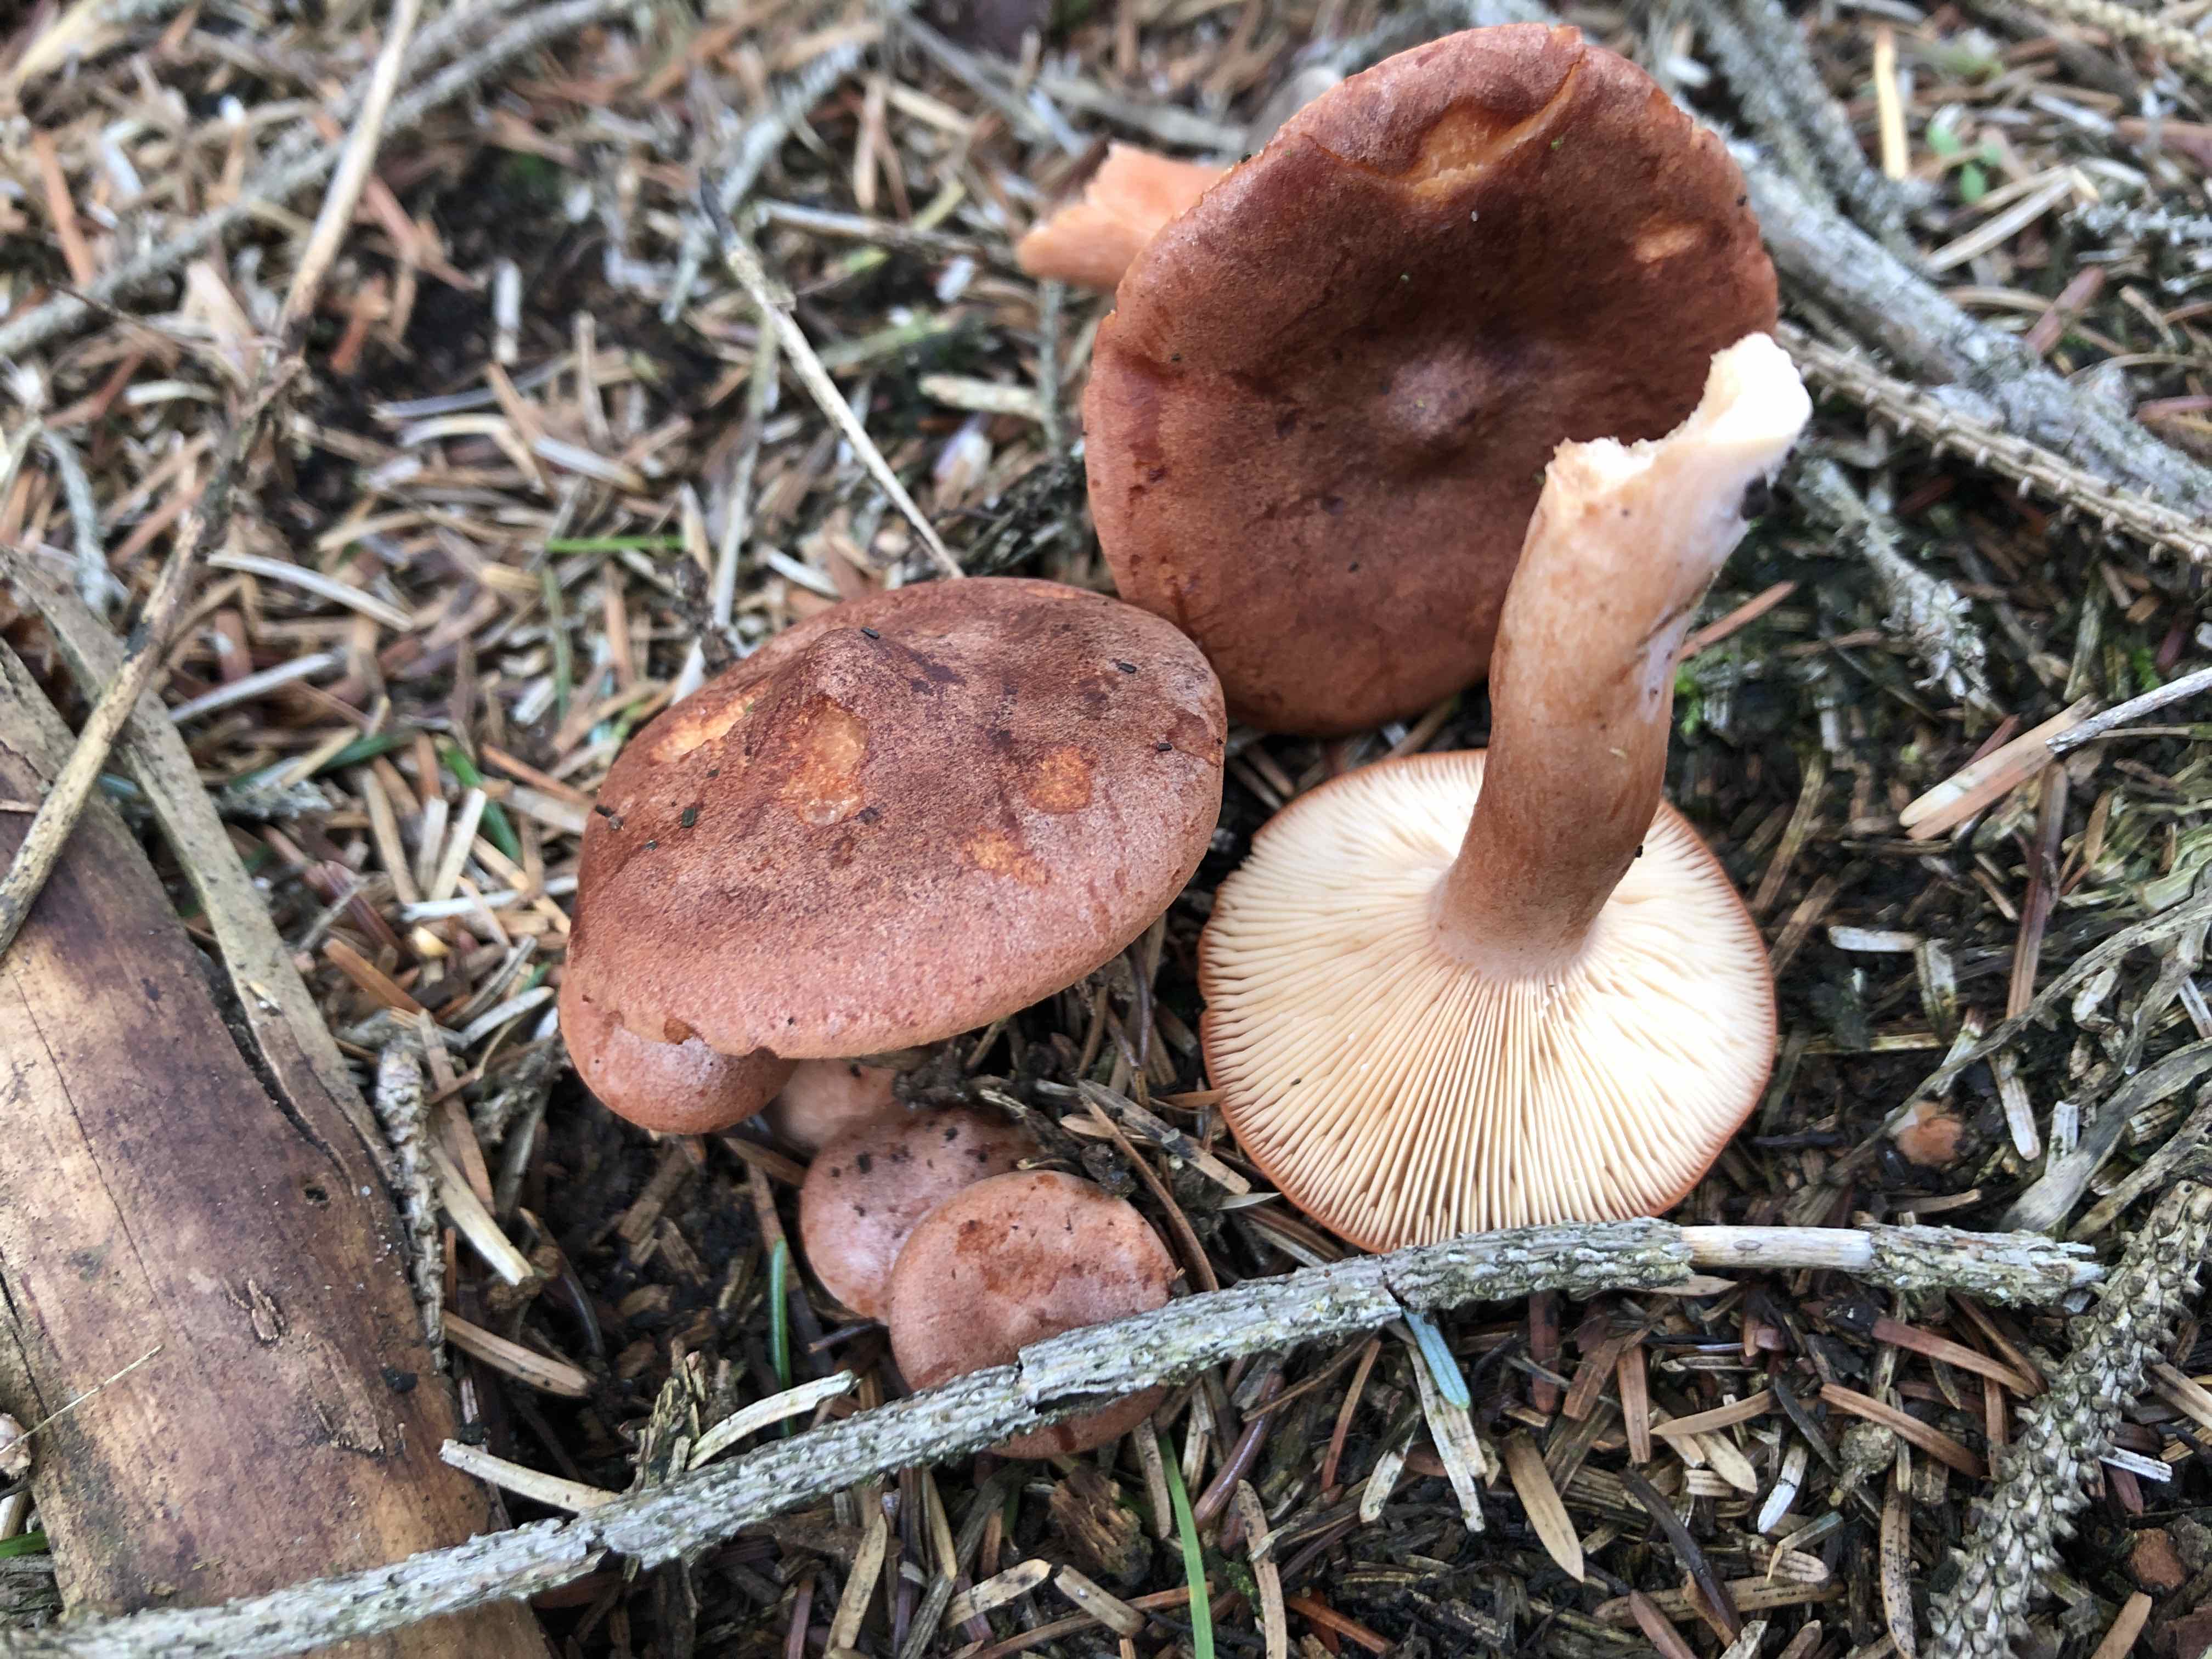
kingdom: Fungi
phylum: Basidiomycota
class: Agaricomycetes
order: Russulales
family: Russulaceae
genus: Lactarius
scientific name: Lactarius rufus
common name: rødbrun mælkehat
